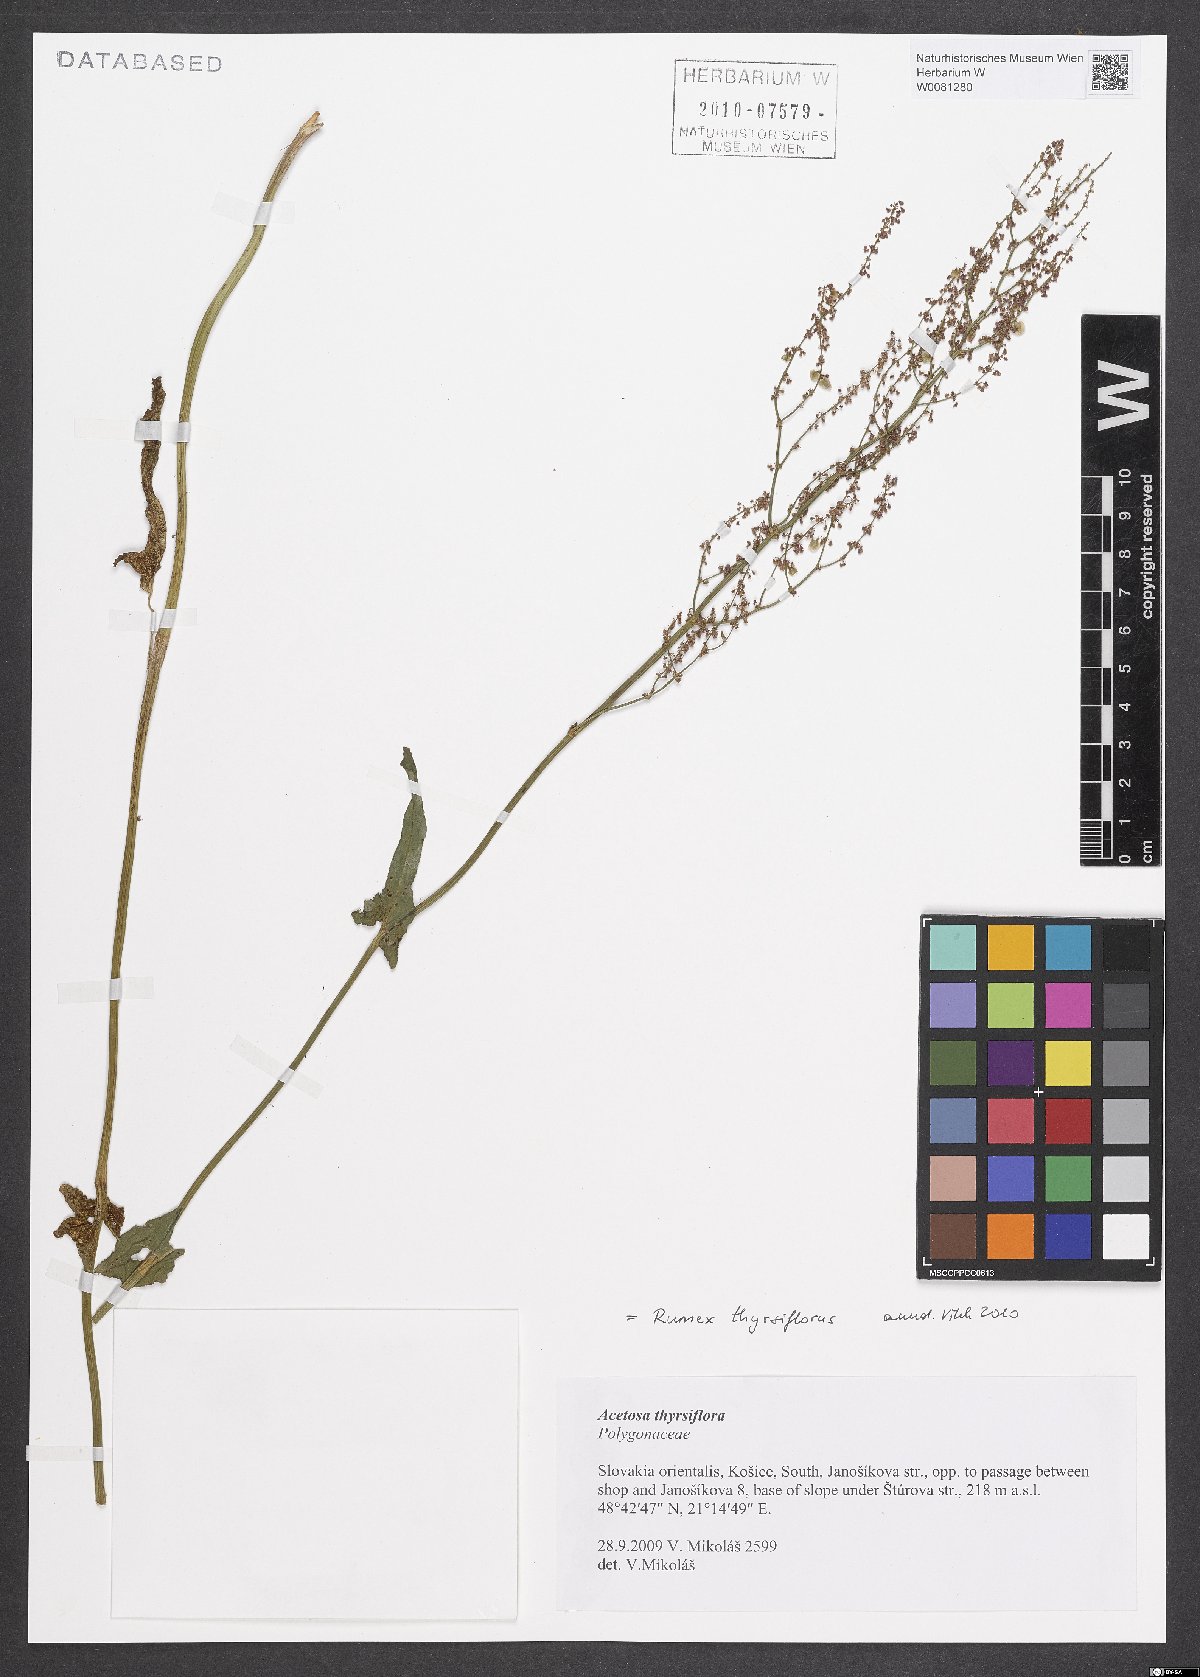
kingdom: Plantae
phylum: Tracheophyta
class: Magnoliopsida
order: Caryophyllales
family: Polygonaceae
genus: Rumex
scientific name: Rumex thyrsiflorus
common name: Garden sorrel
